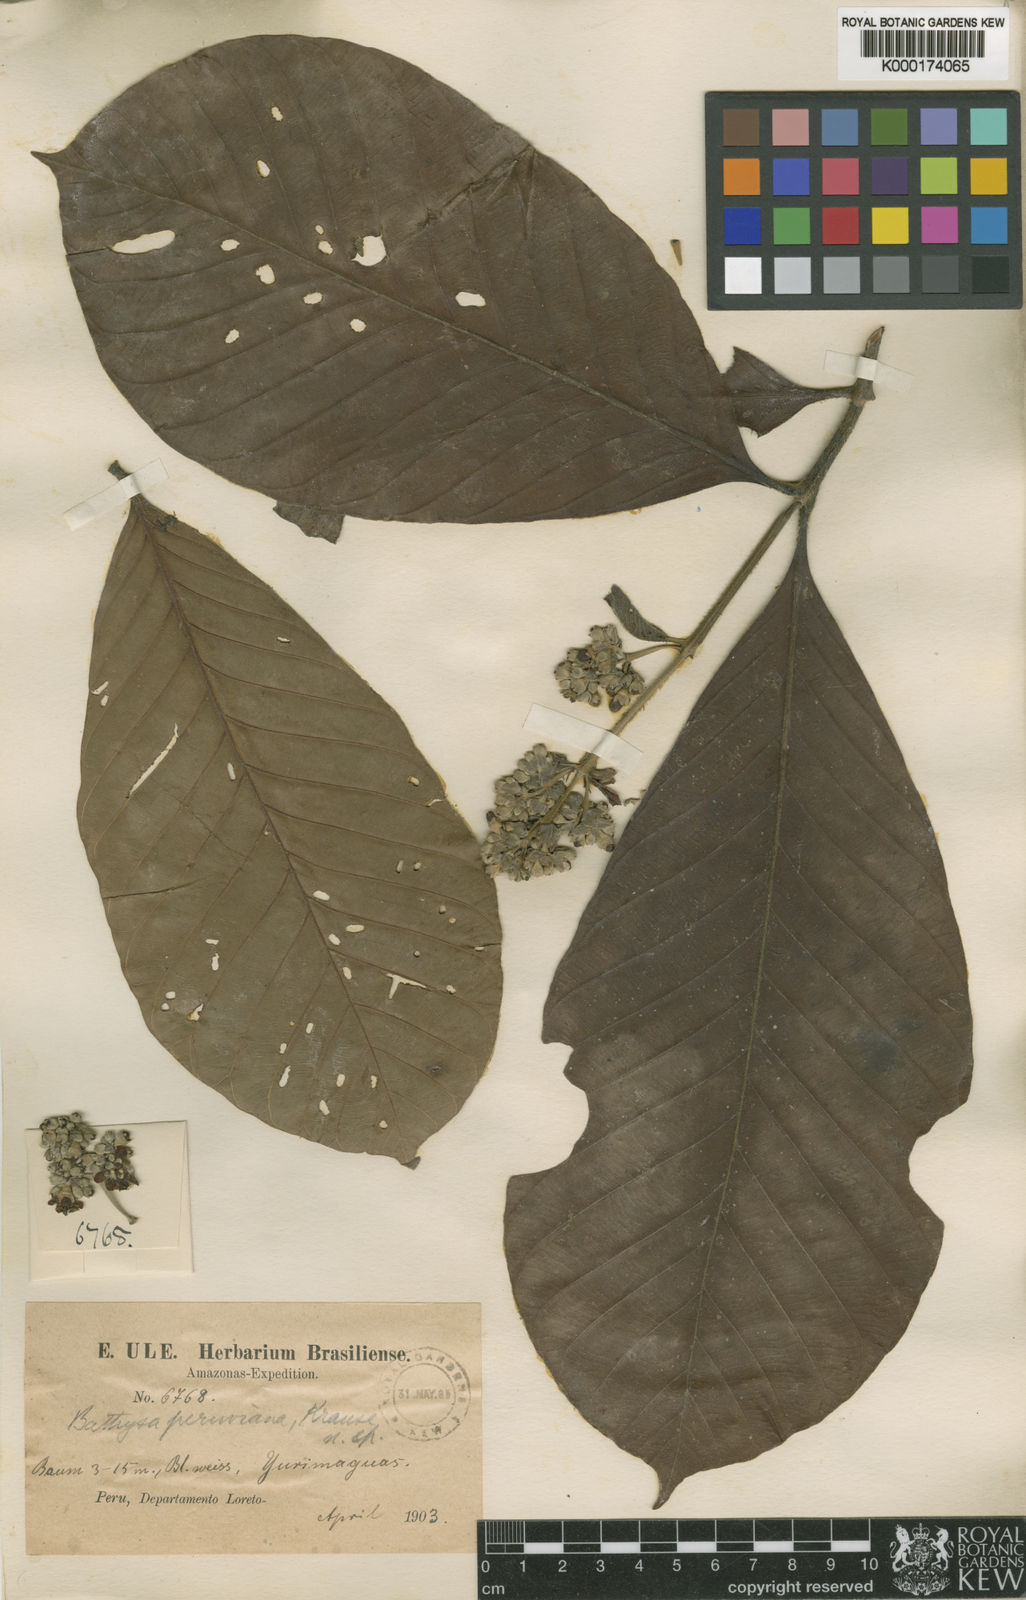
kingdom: Plantae
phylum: Tracheophyta
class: Magnoliopsida
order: Gentianales
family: Rubiaceae
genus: Schizocalyx
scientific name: Schizocalyx peruvianus
